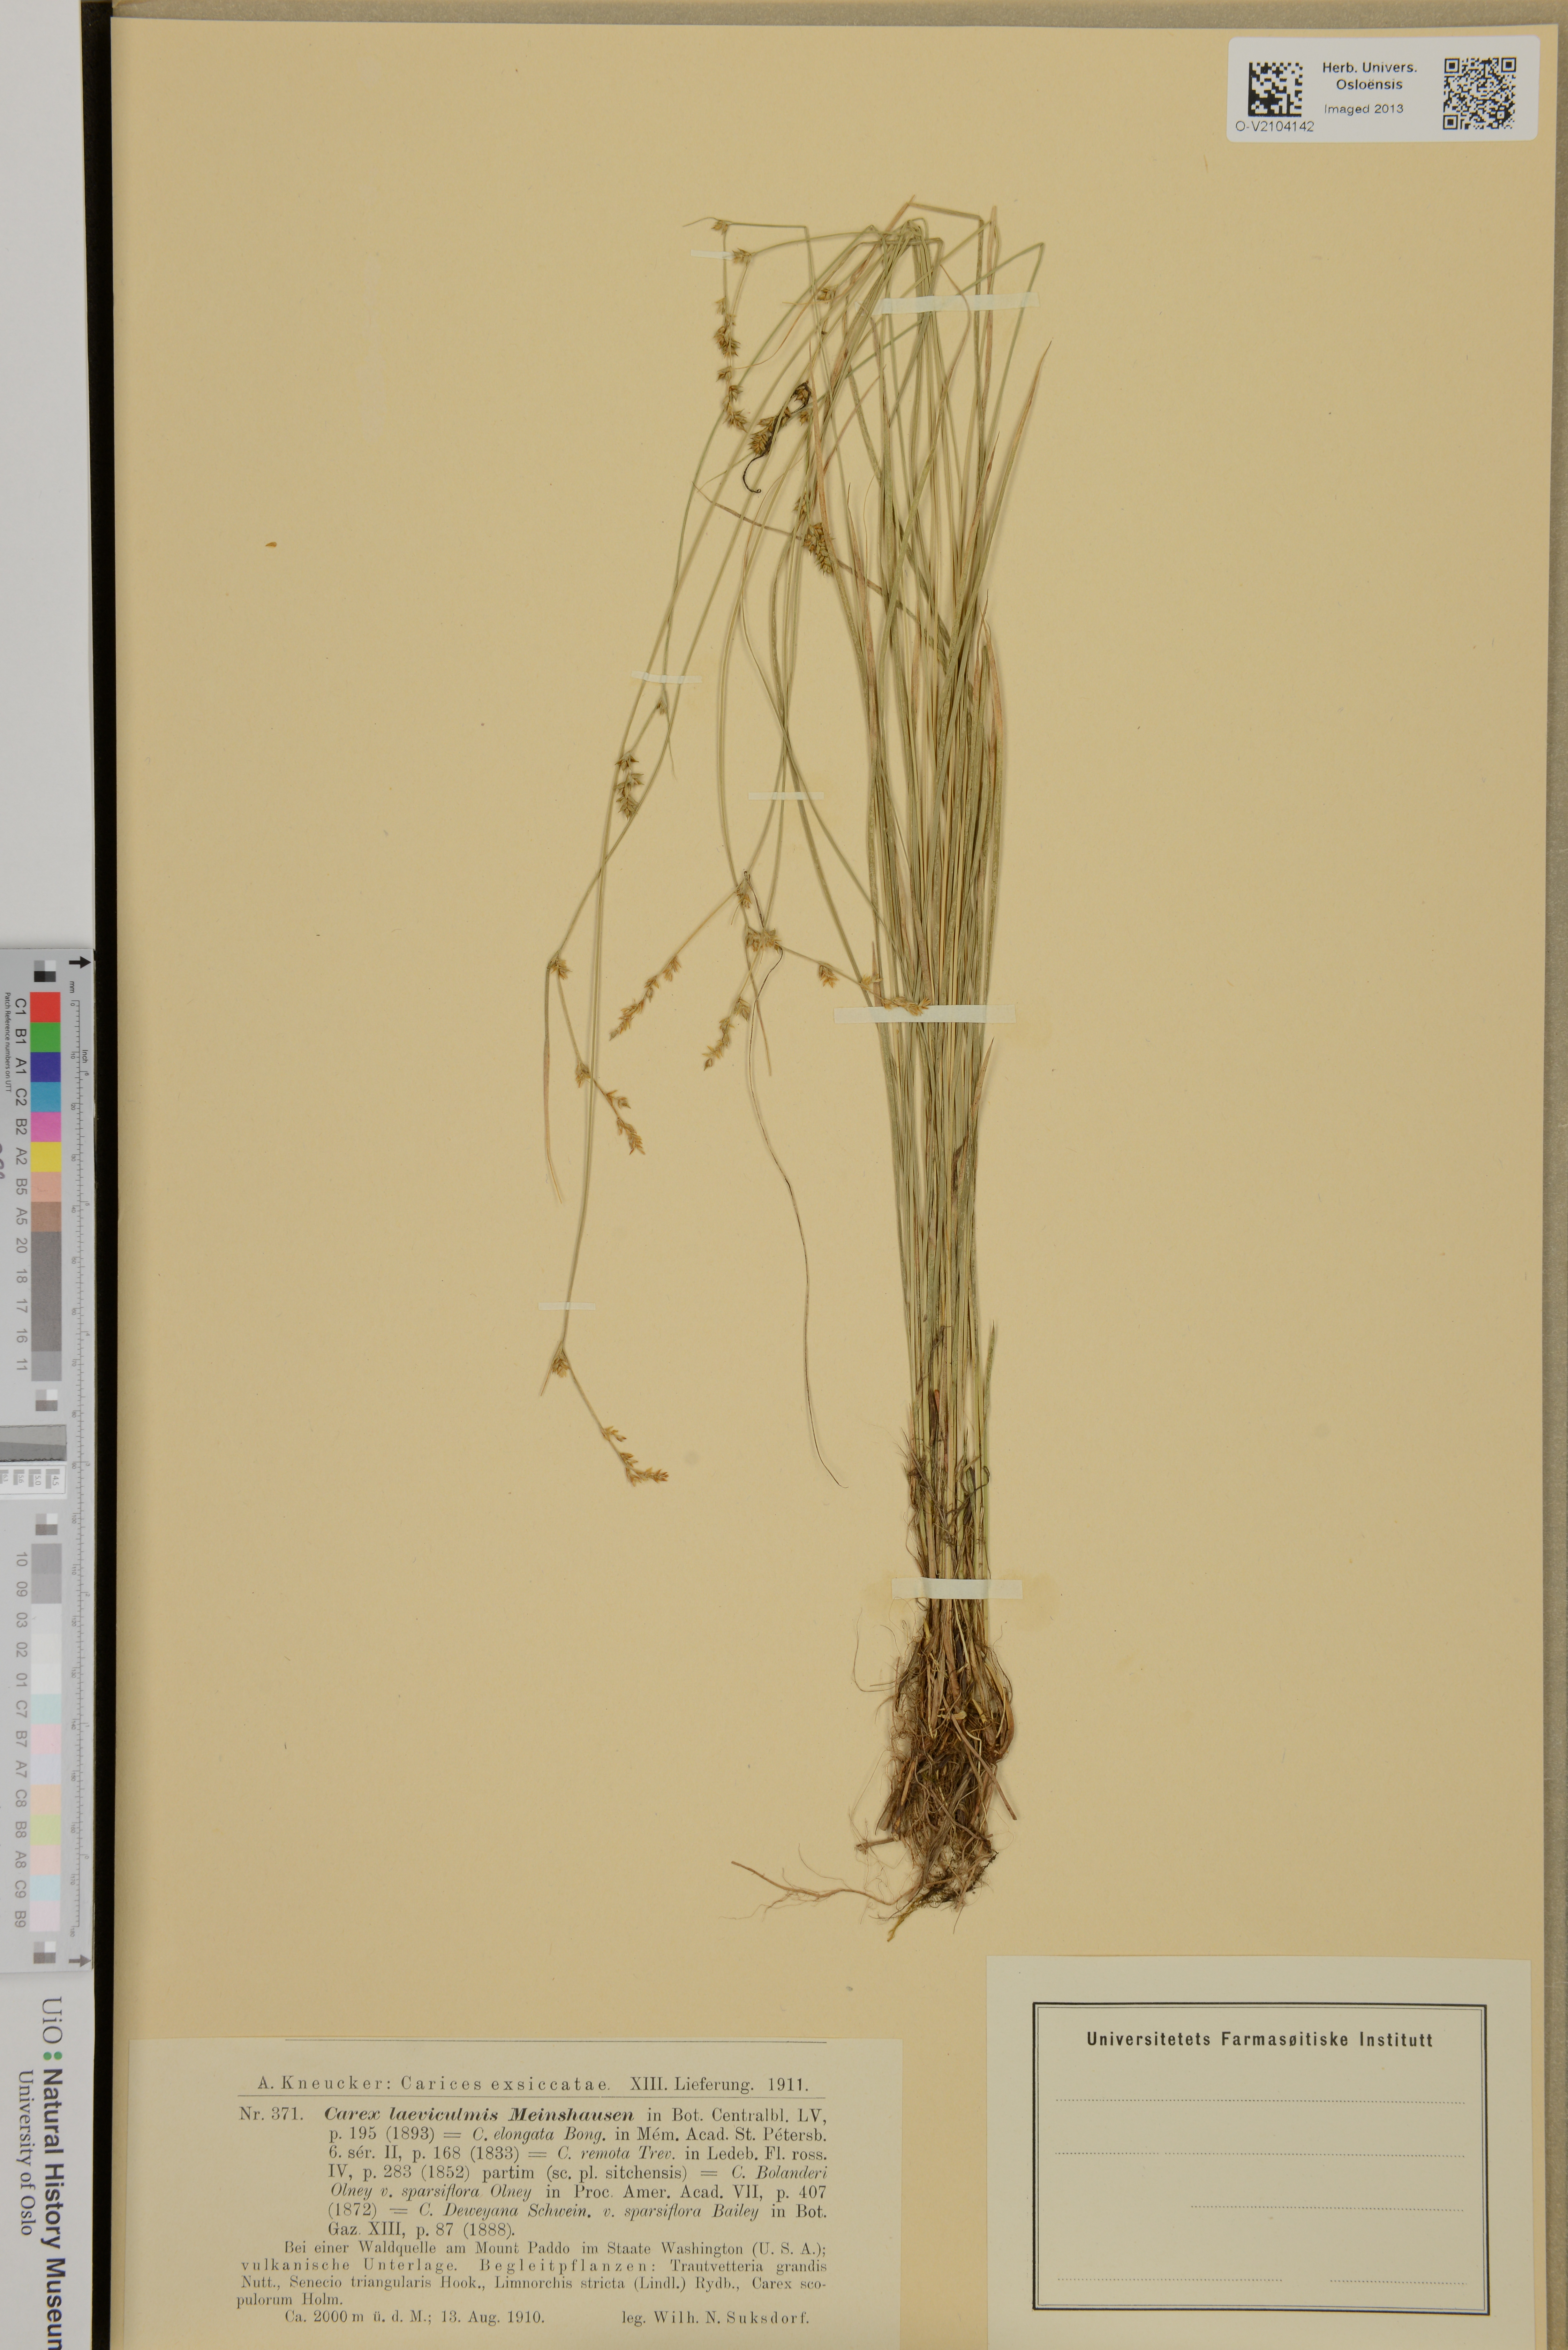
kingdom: Plantae
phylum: Tracheophyta
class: Liliopsida
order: Poales
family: Cyperaceae
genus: Carex
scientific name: Carex kreczetoviczii
